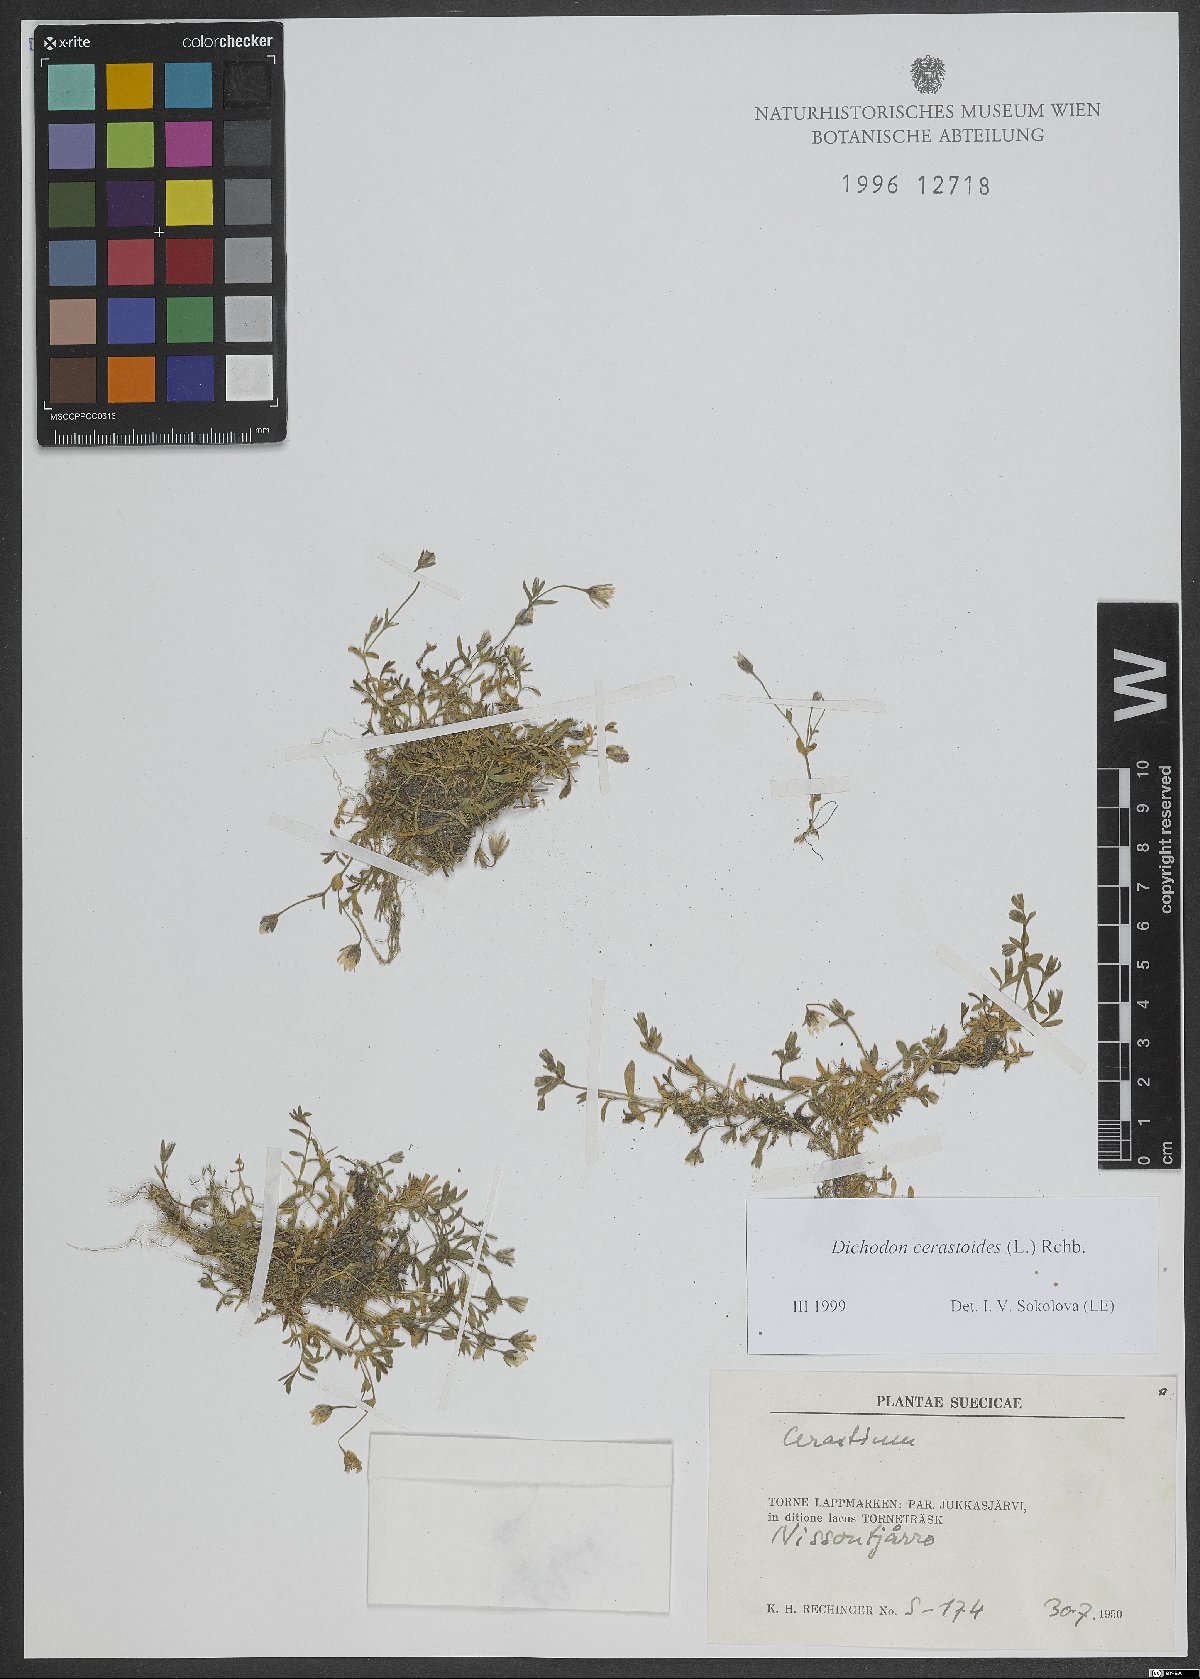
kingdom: Plantae
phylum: Tracheophyta
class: Magnoliopsida
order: Caryophyllales
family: Caryophyllaceae
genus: Dichodon
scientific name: Dichodon cerastoides
